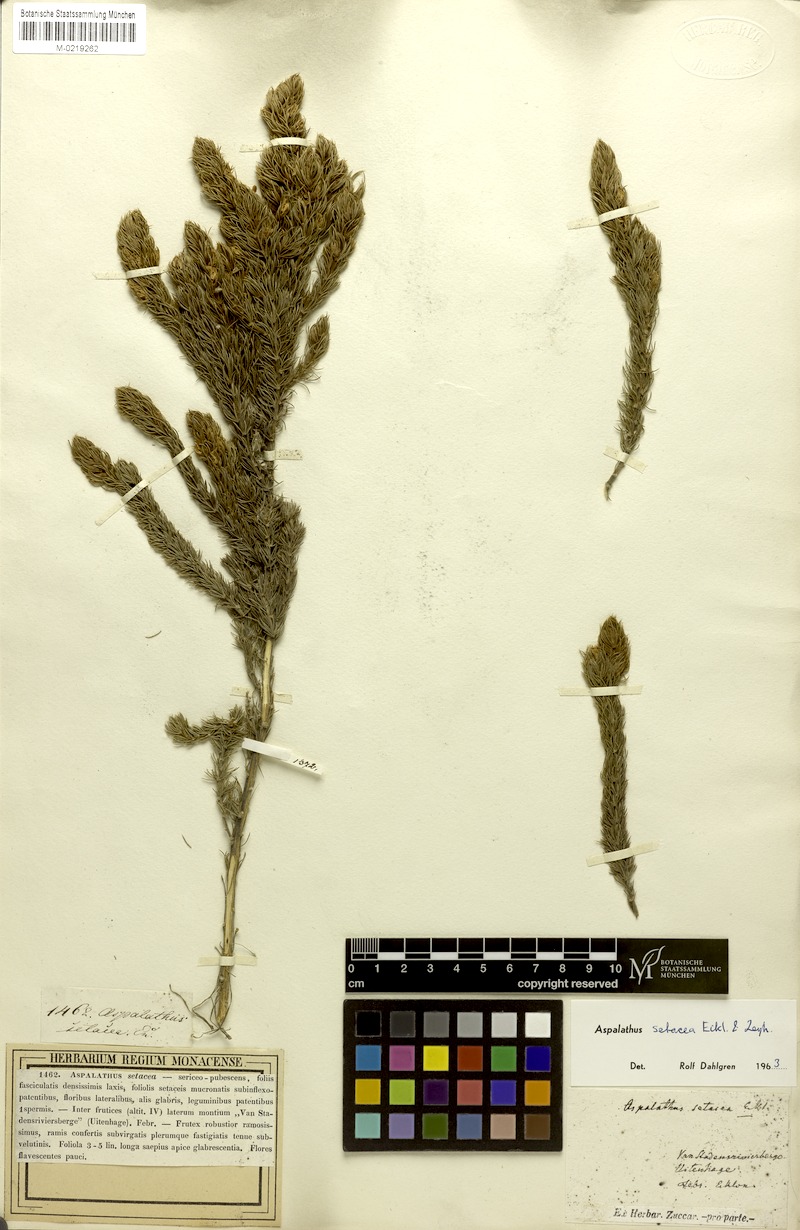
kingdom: Plantae
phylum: Tracheophyta
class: Magnoliopsida
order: Fabales
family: Fabaceae
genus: Aspalathus
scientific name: Aspalathus setacea
